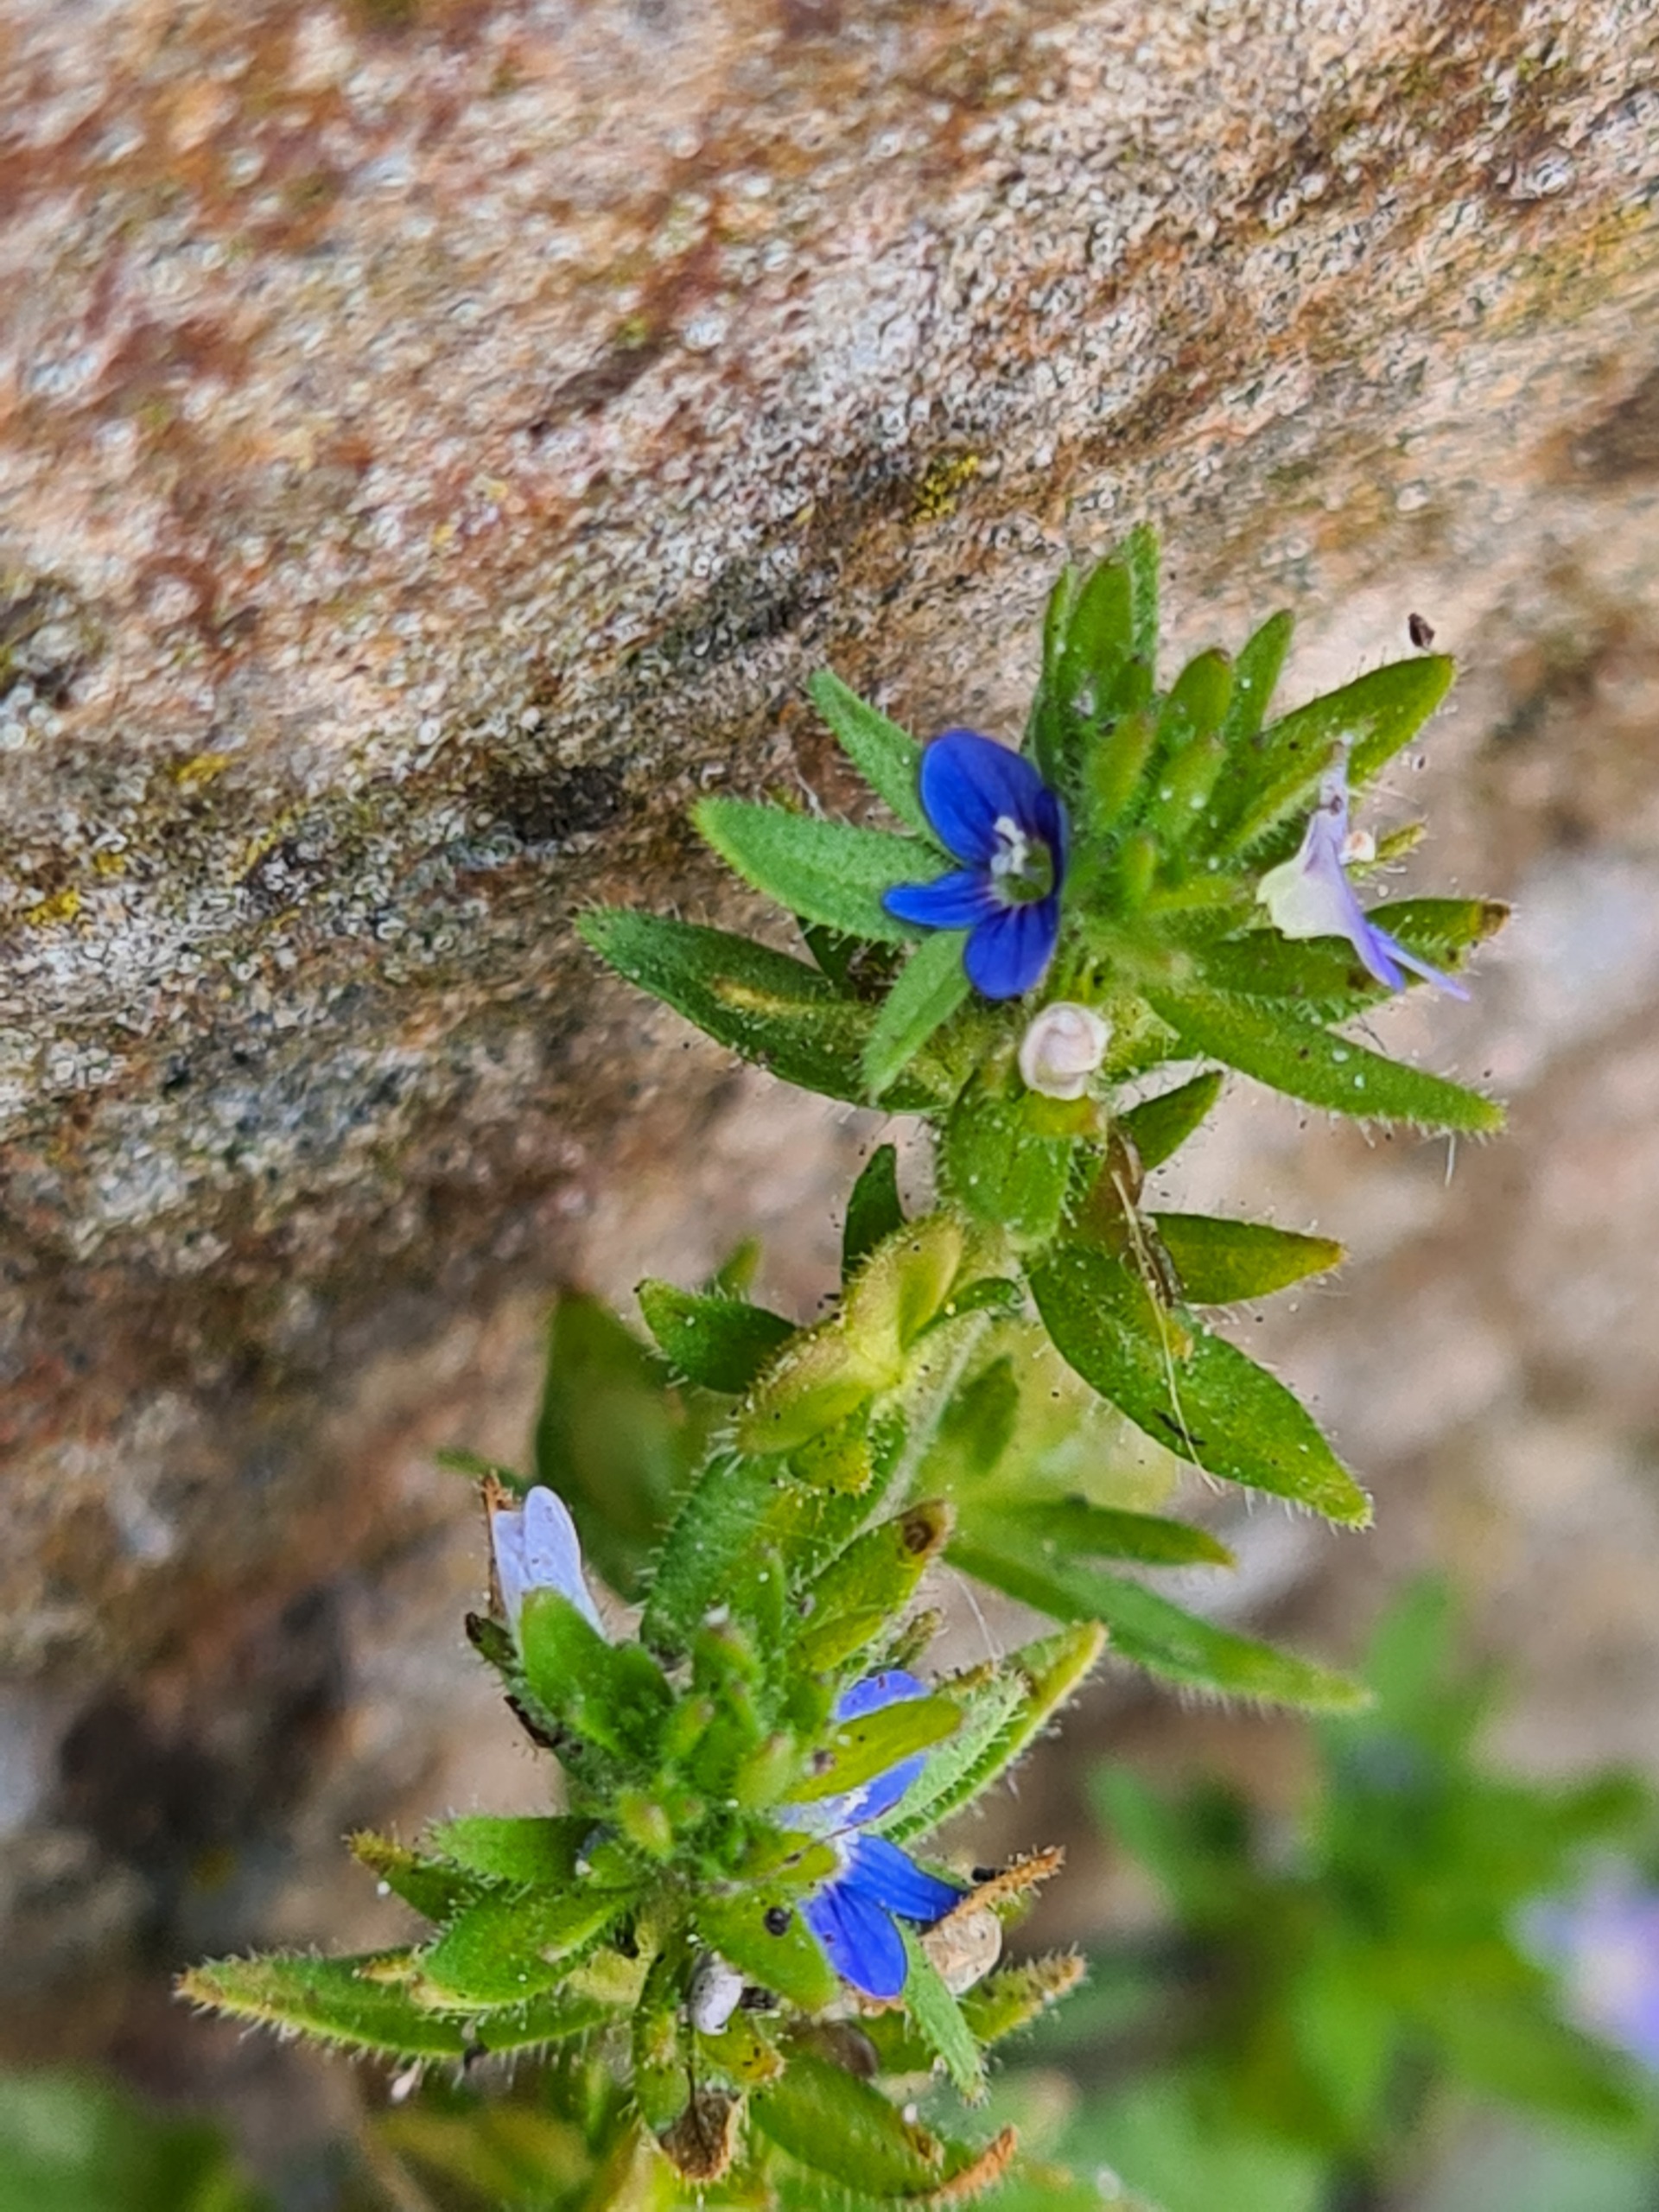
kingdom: Plantae
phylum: Tracheophyta
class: Magnoliopsida
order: Lamiales
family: Plantaginaceae
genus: Veronica
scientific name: Veronica arvensis
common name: Mark-ærenpris
